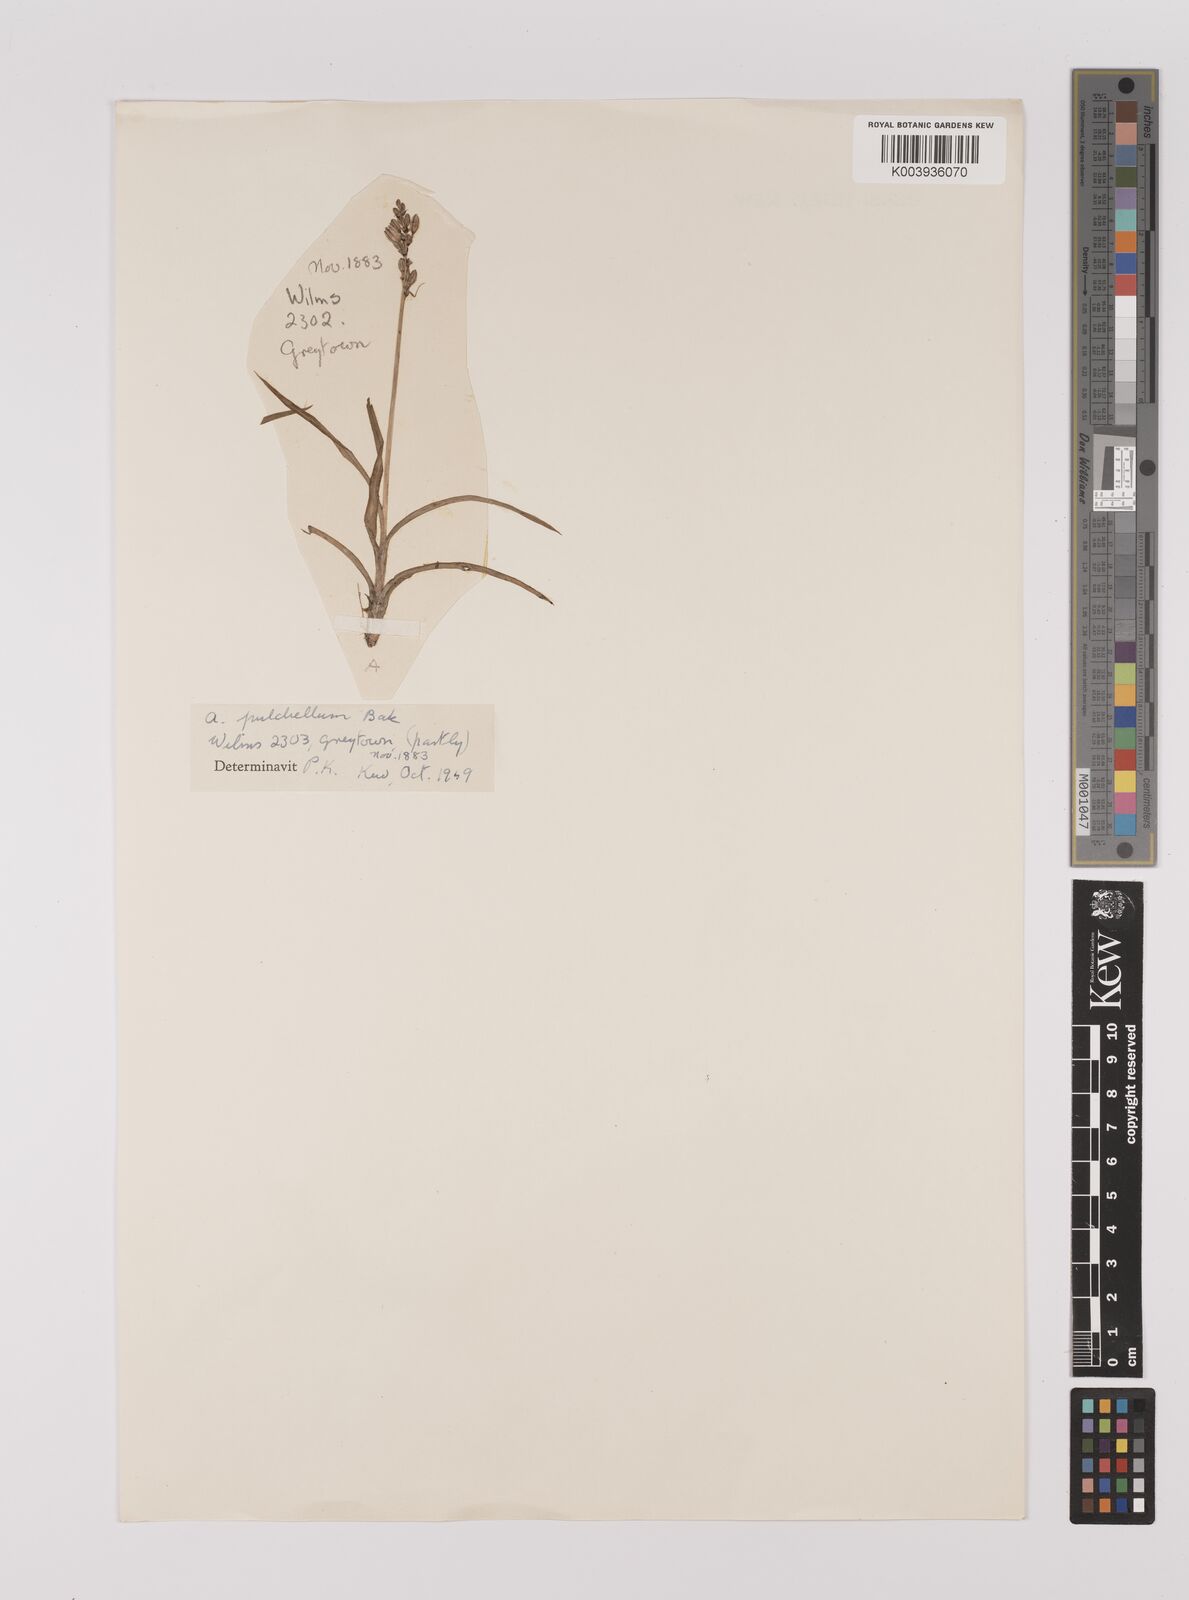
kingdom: Plantae
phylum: Tracheophyta
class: Liliopsida
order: Asparagales
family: Asparagaceae
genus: Chlorophytum
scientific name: Chlorophytum saundersiae
